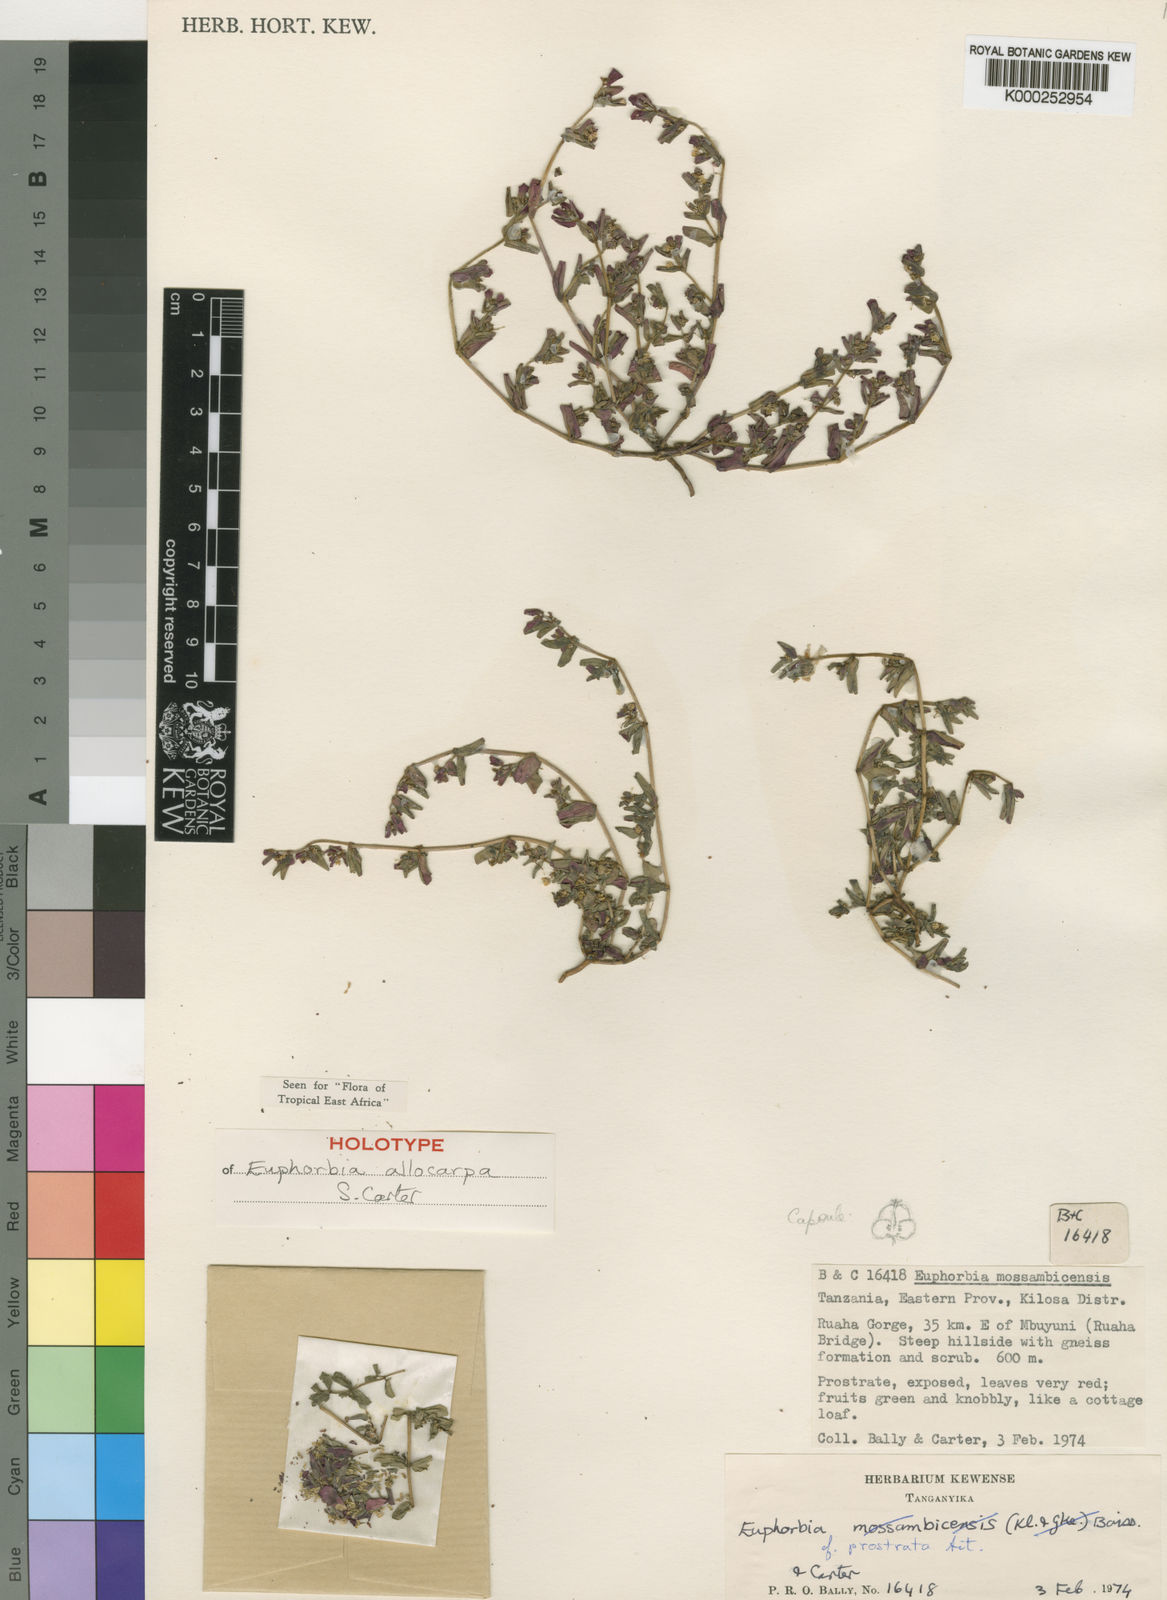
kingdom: Plantae
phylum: Tracheophyta
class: Magnoliopsida
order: Malpighiales
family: Euphorbiaceae
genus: Euphorbia
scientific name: Euphorbia allocarpa
